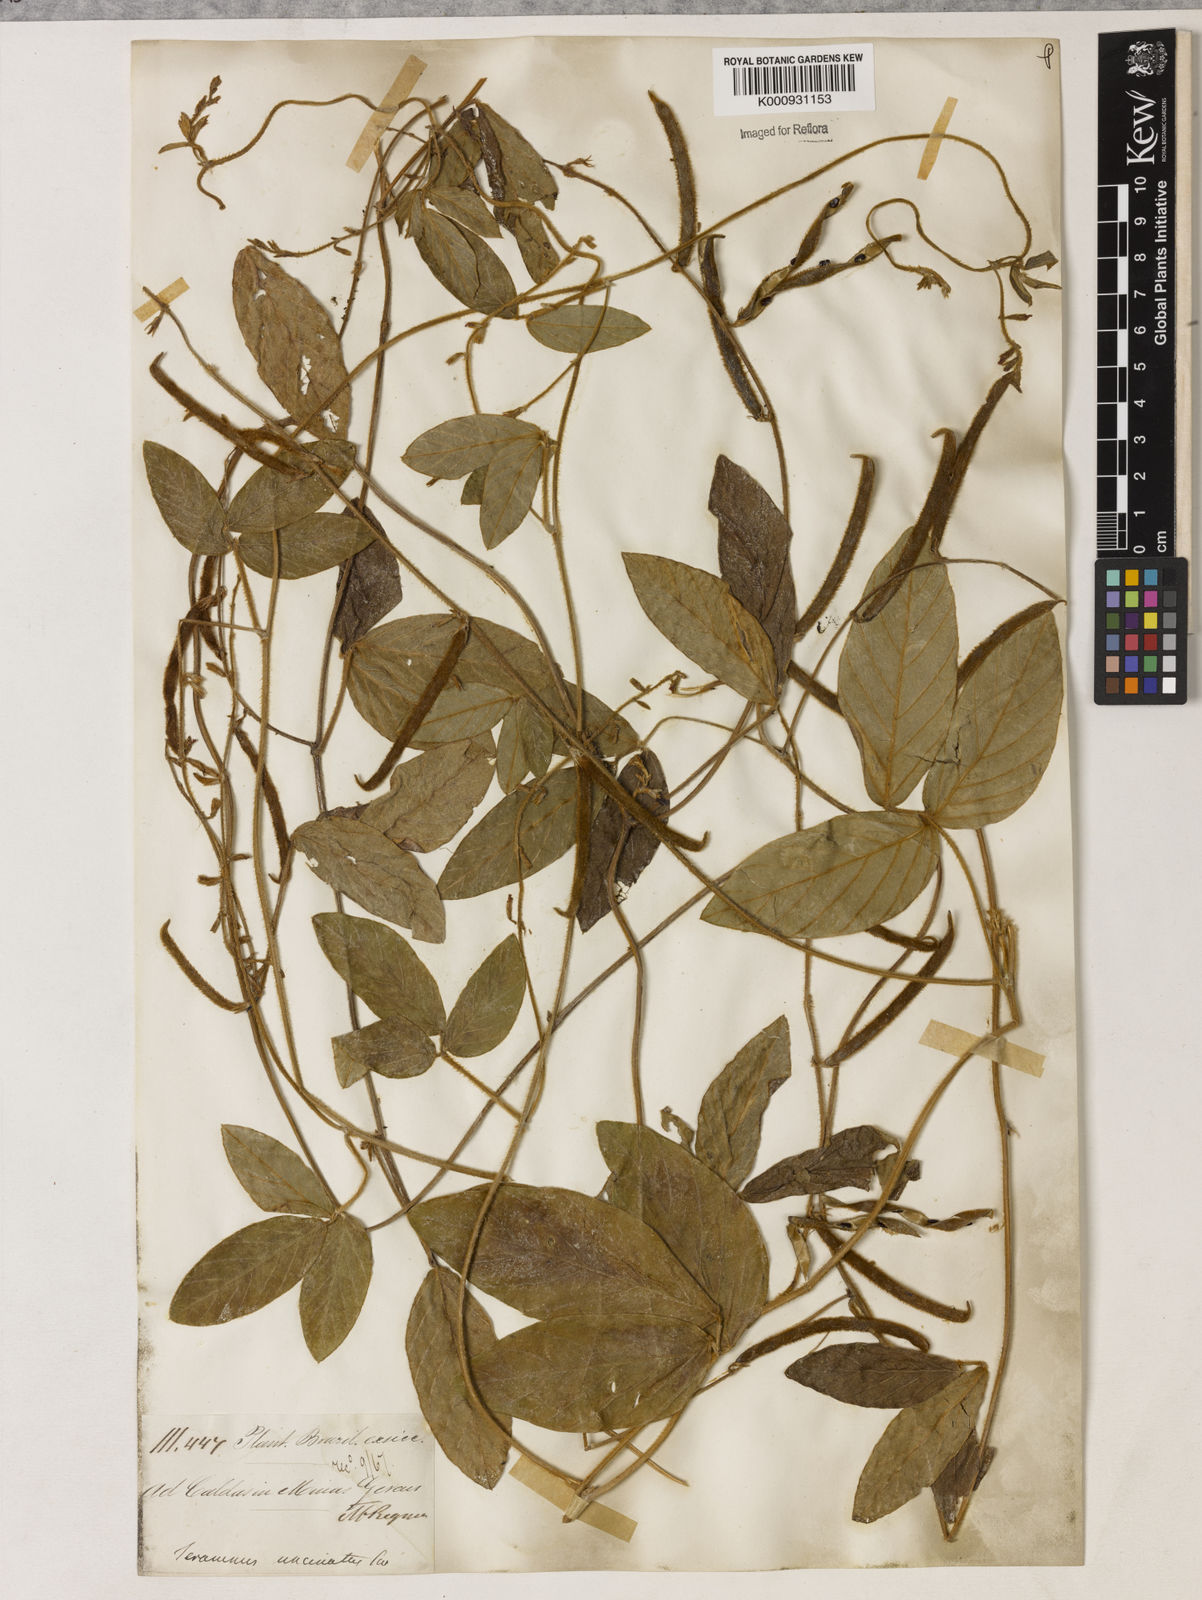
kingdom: Plantae
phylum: Tracheophyta
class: Magnoliopsida
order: Fabales
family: Fabaceae
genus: Teramnus
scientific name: Teramnus uncinatus
